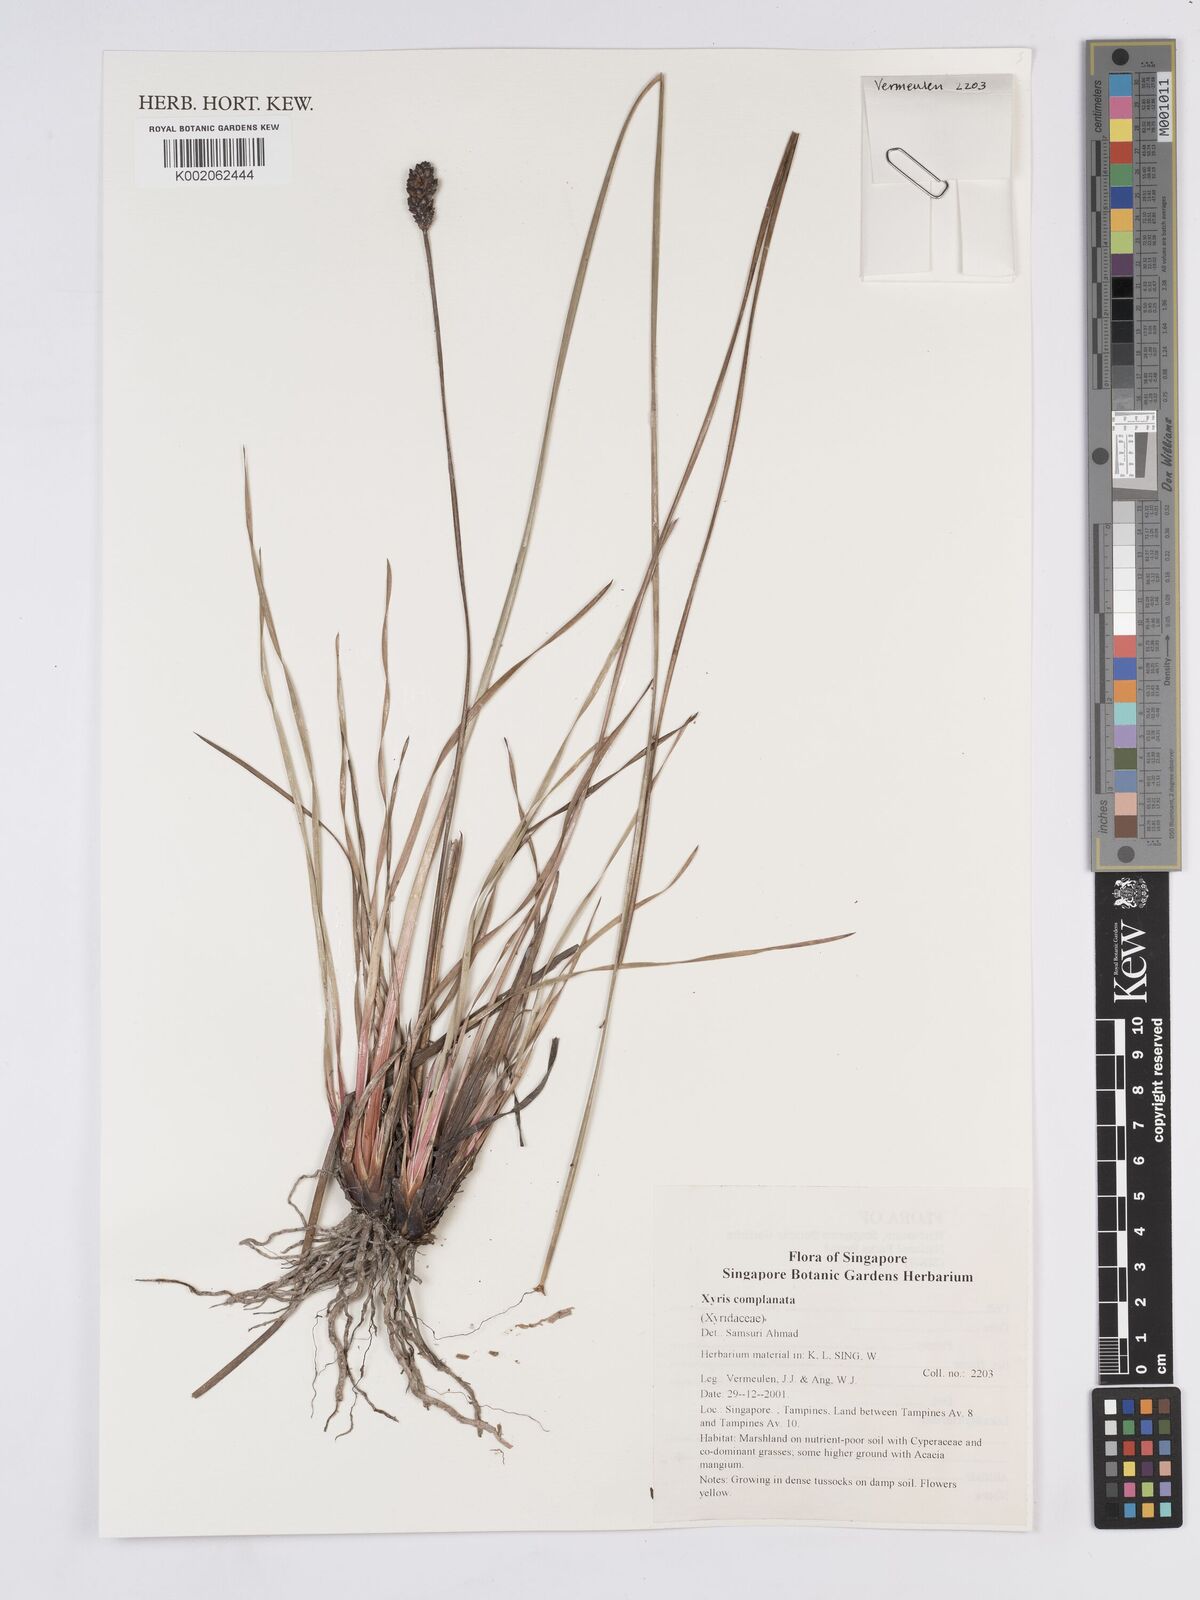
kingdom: Plantae
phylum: Tracheophyta
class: Liliopsida
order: Poales
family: Xyridaceae
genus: Xyris
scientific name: Xyris complanata
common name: Hawai'i yelloweyed grass
